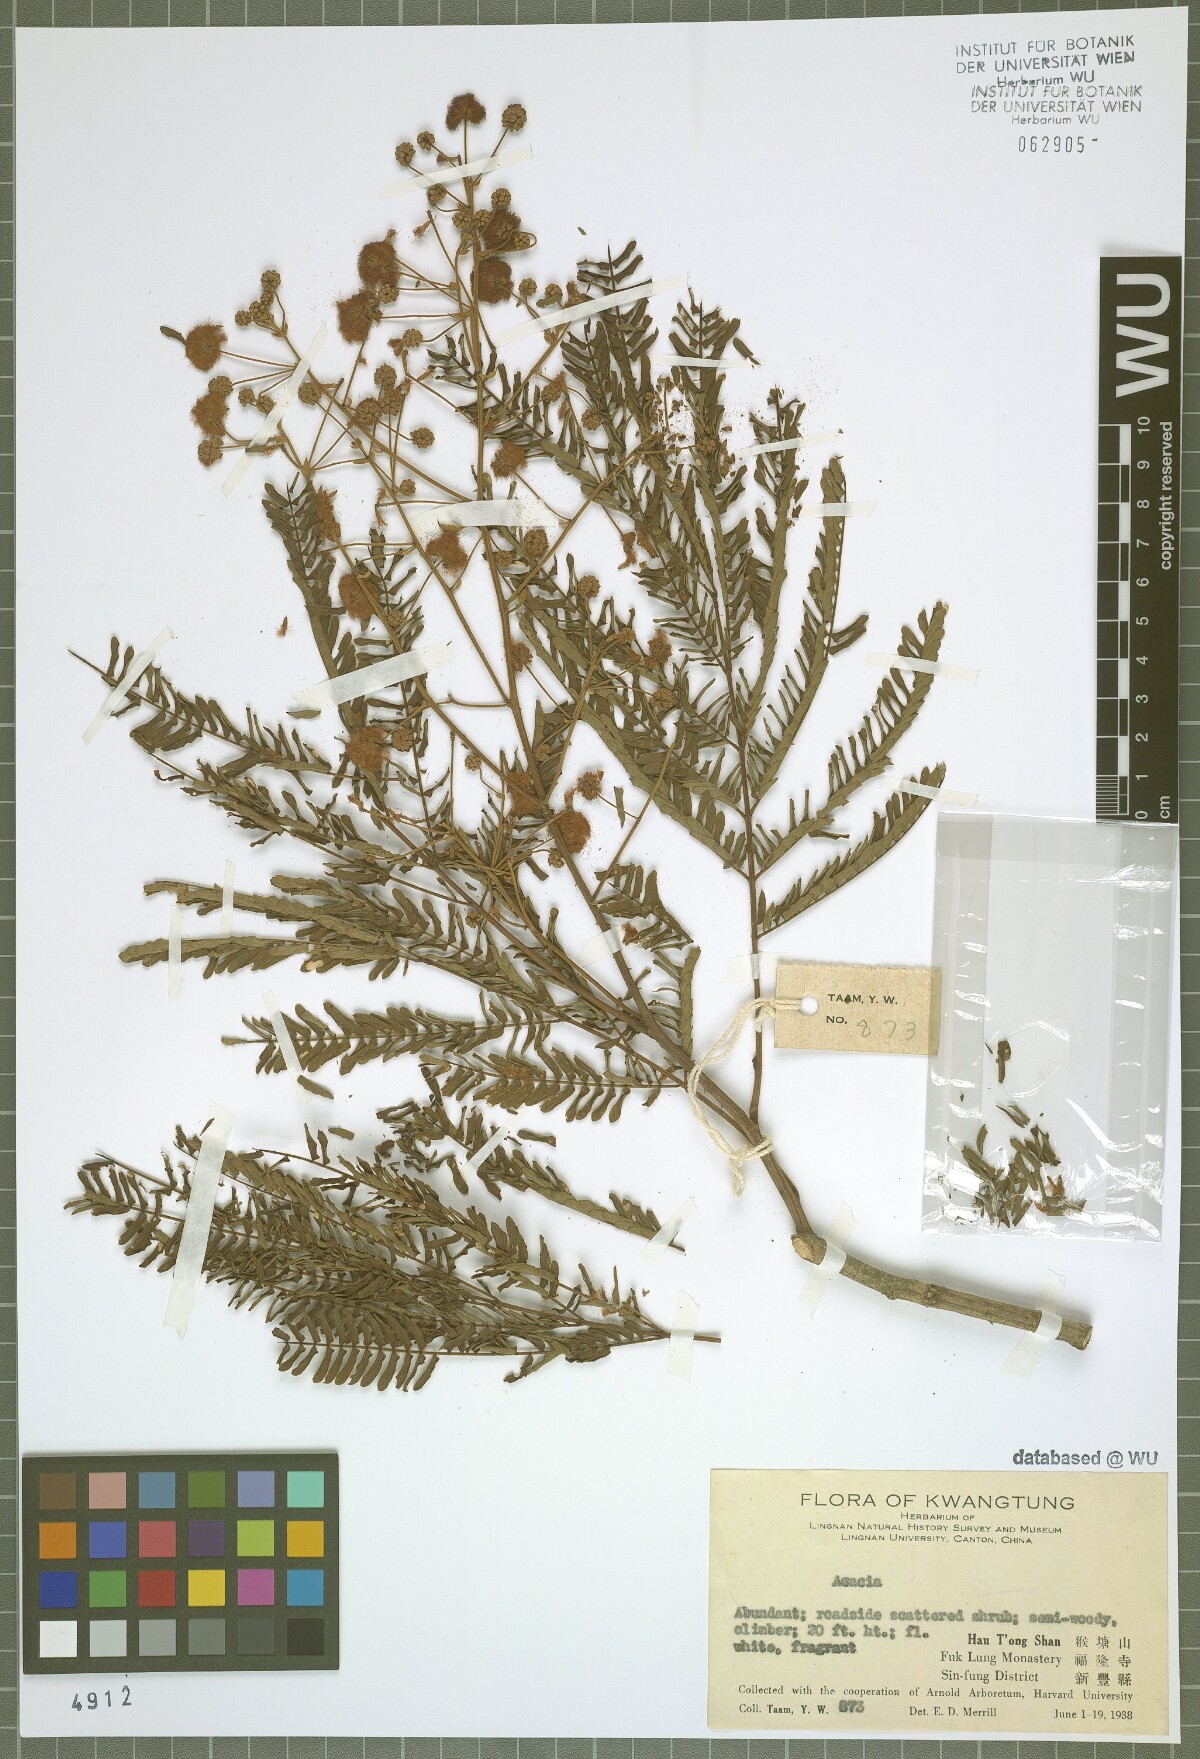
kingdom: Plantae
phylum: Tracheophyta
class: Magnoliopsida
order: Fabales
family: Fabaceae
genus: Acacia
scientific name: Acacia
